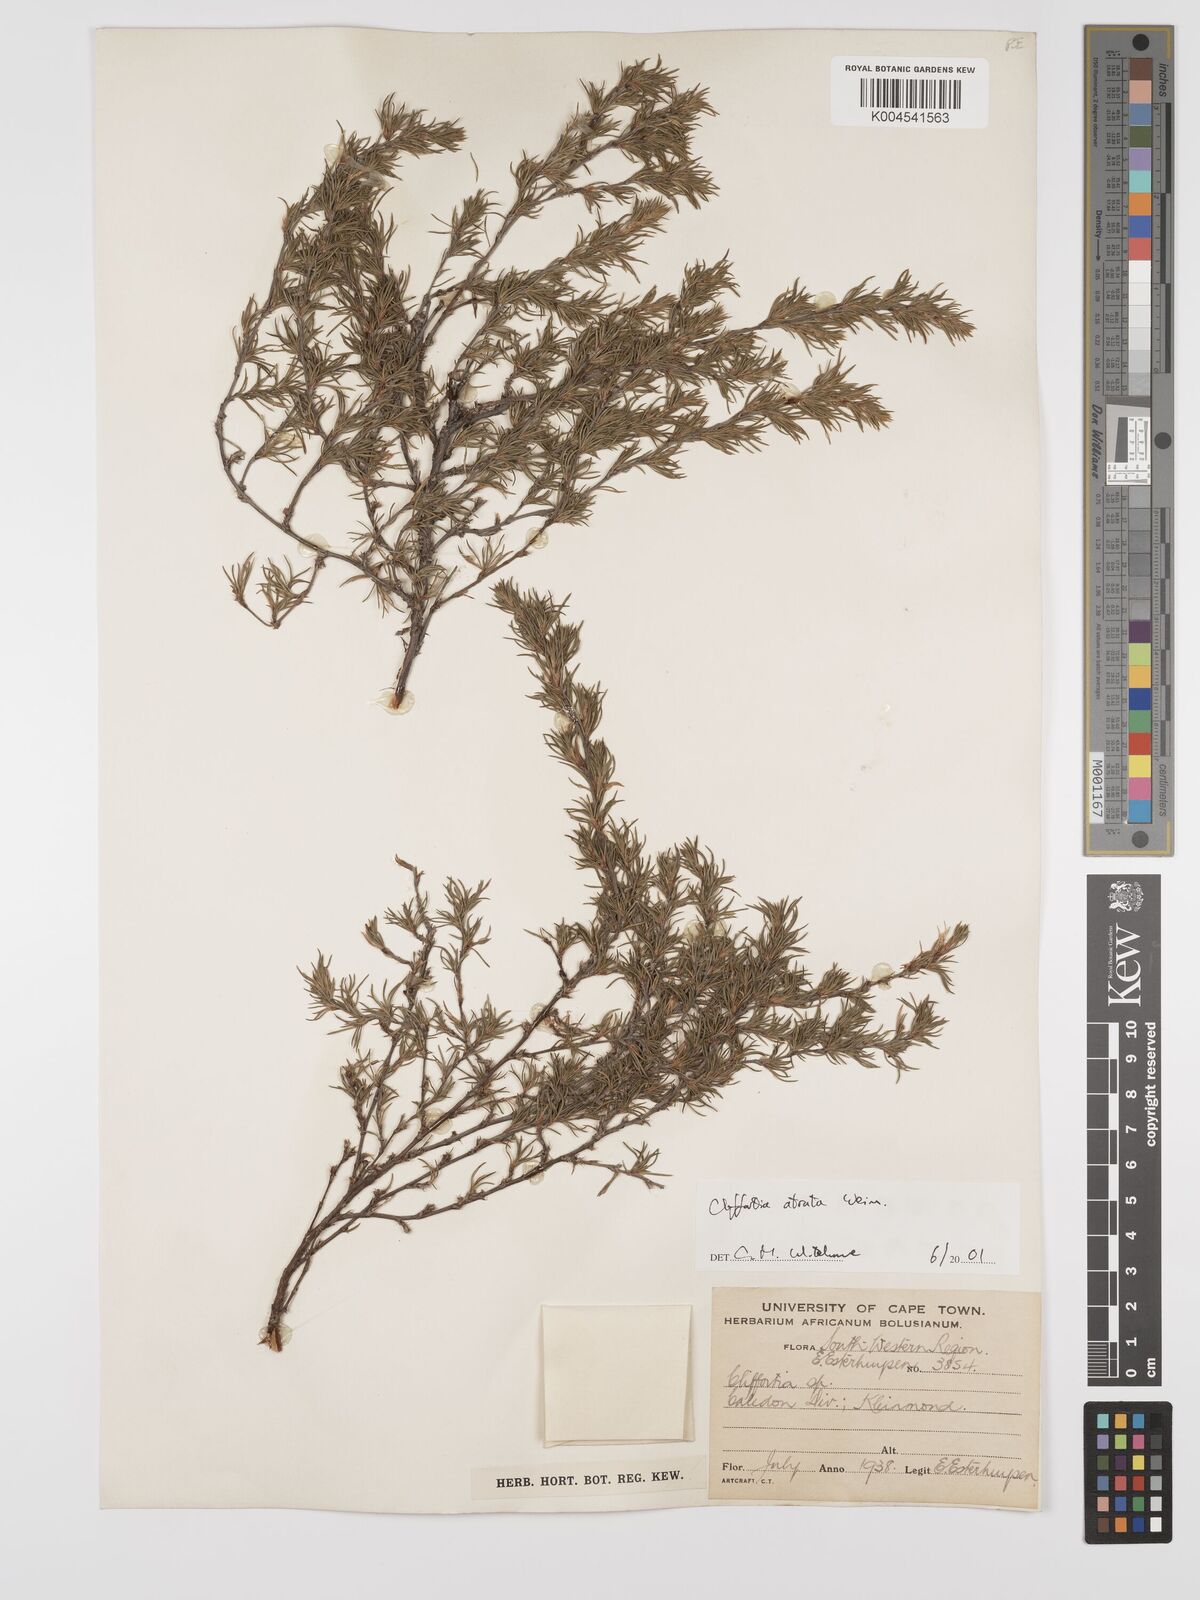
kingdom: Plantae
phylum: Tracheophyta
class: Magnoliopsida
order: Rosales
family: Rosaceae
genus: Cliffortia
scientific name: Cliffortia atrata
